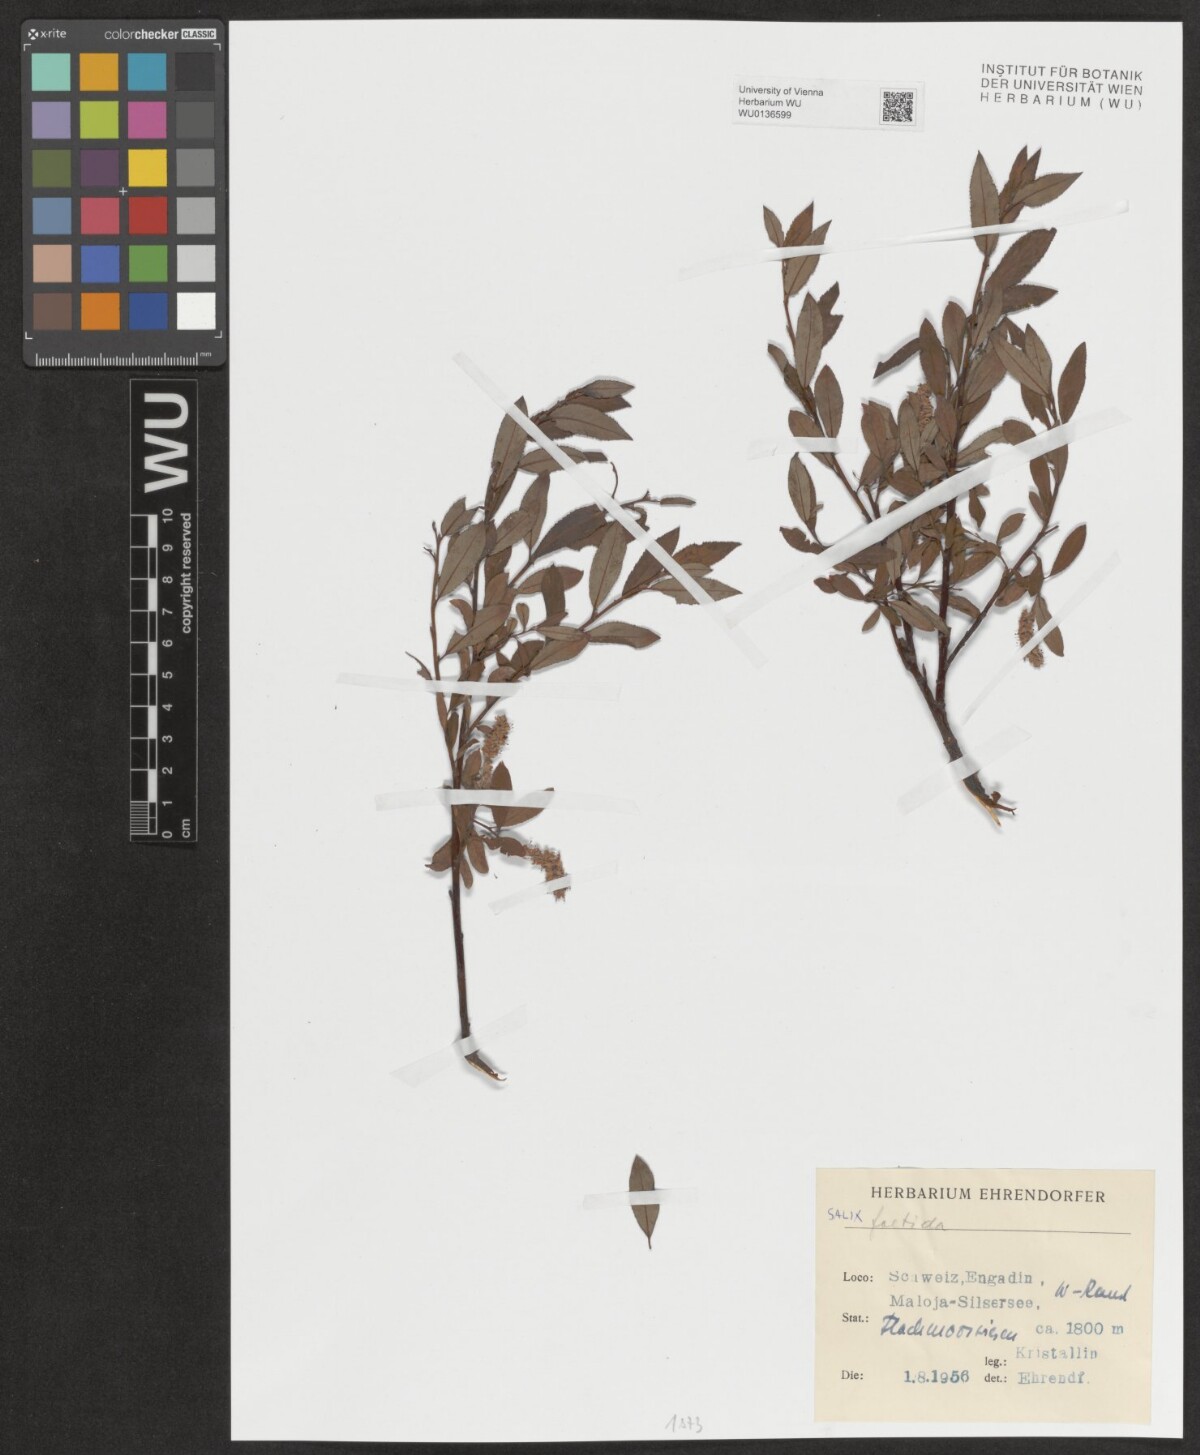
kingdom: Plantae
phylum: Tracheophyta
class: Magnoliopsida
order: Malpighiales
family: Salicaceae
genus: Salix
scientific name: Salix foetida
